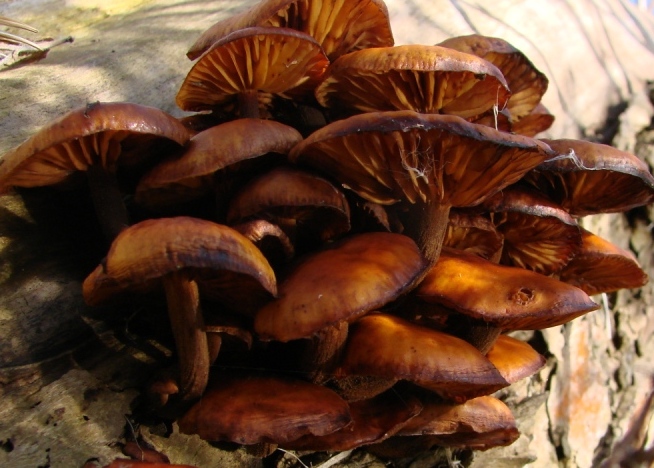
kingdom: Fungi
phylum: Basidiomycota
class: Agaricomycetes
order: Agaricales
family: Physalacriaceae
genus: Flammulina
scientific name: Flammulina elastica
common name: pile-fløjlsfod
